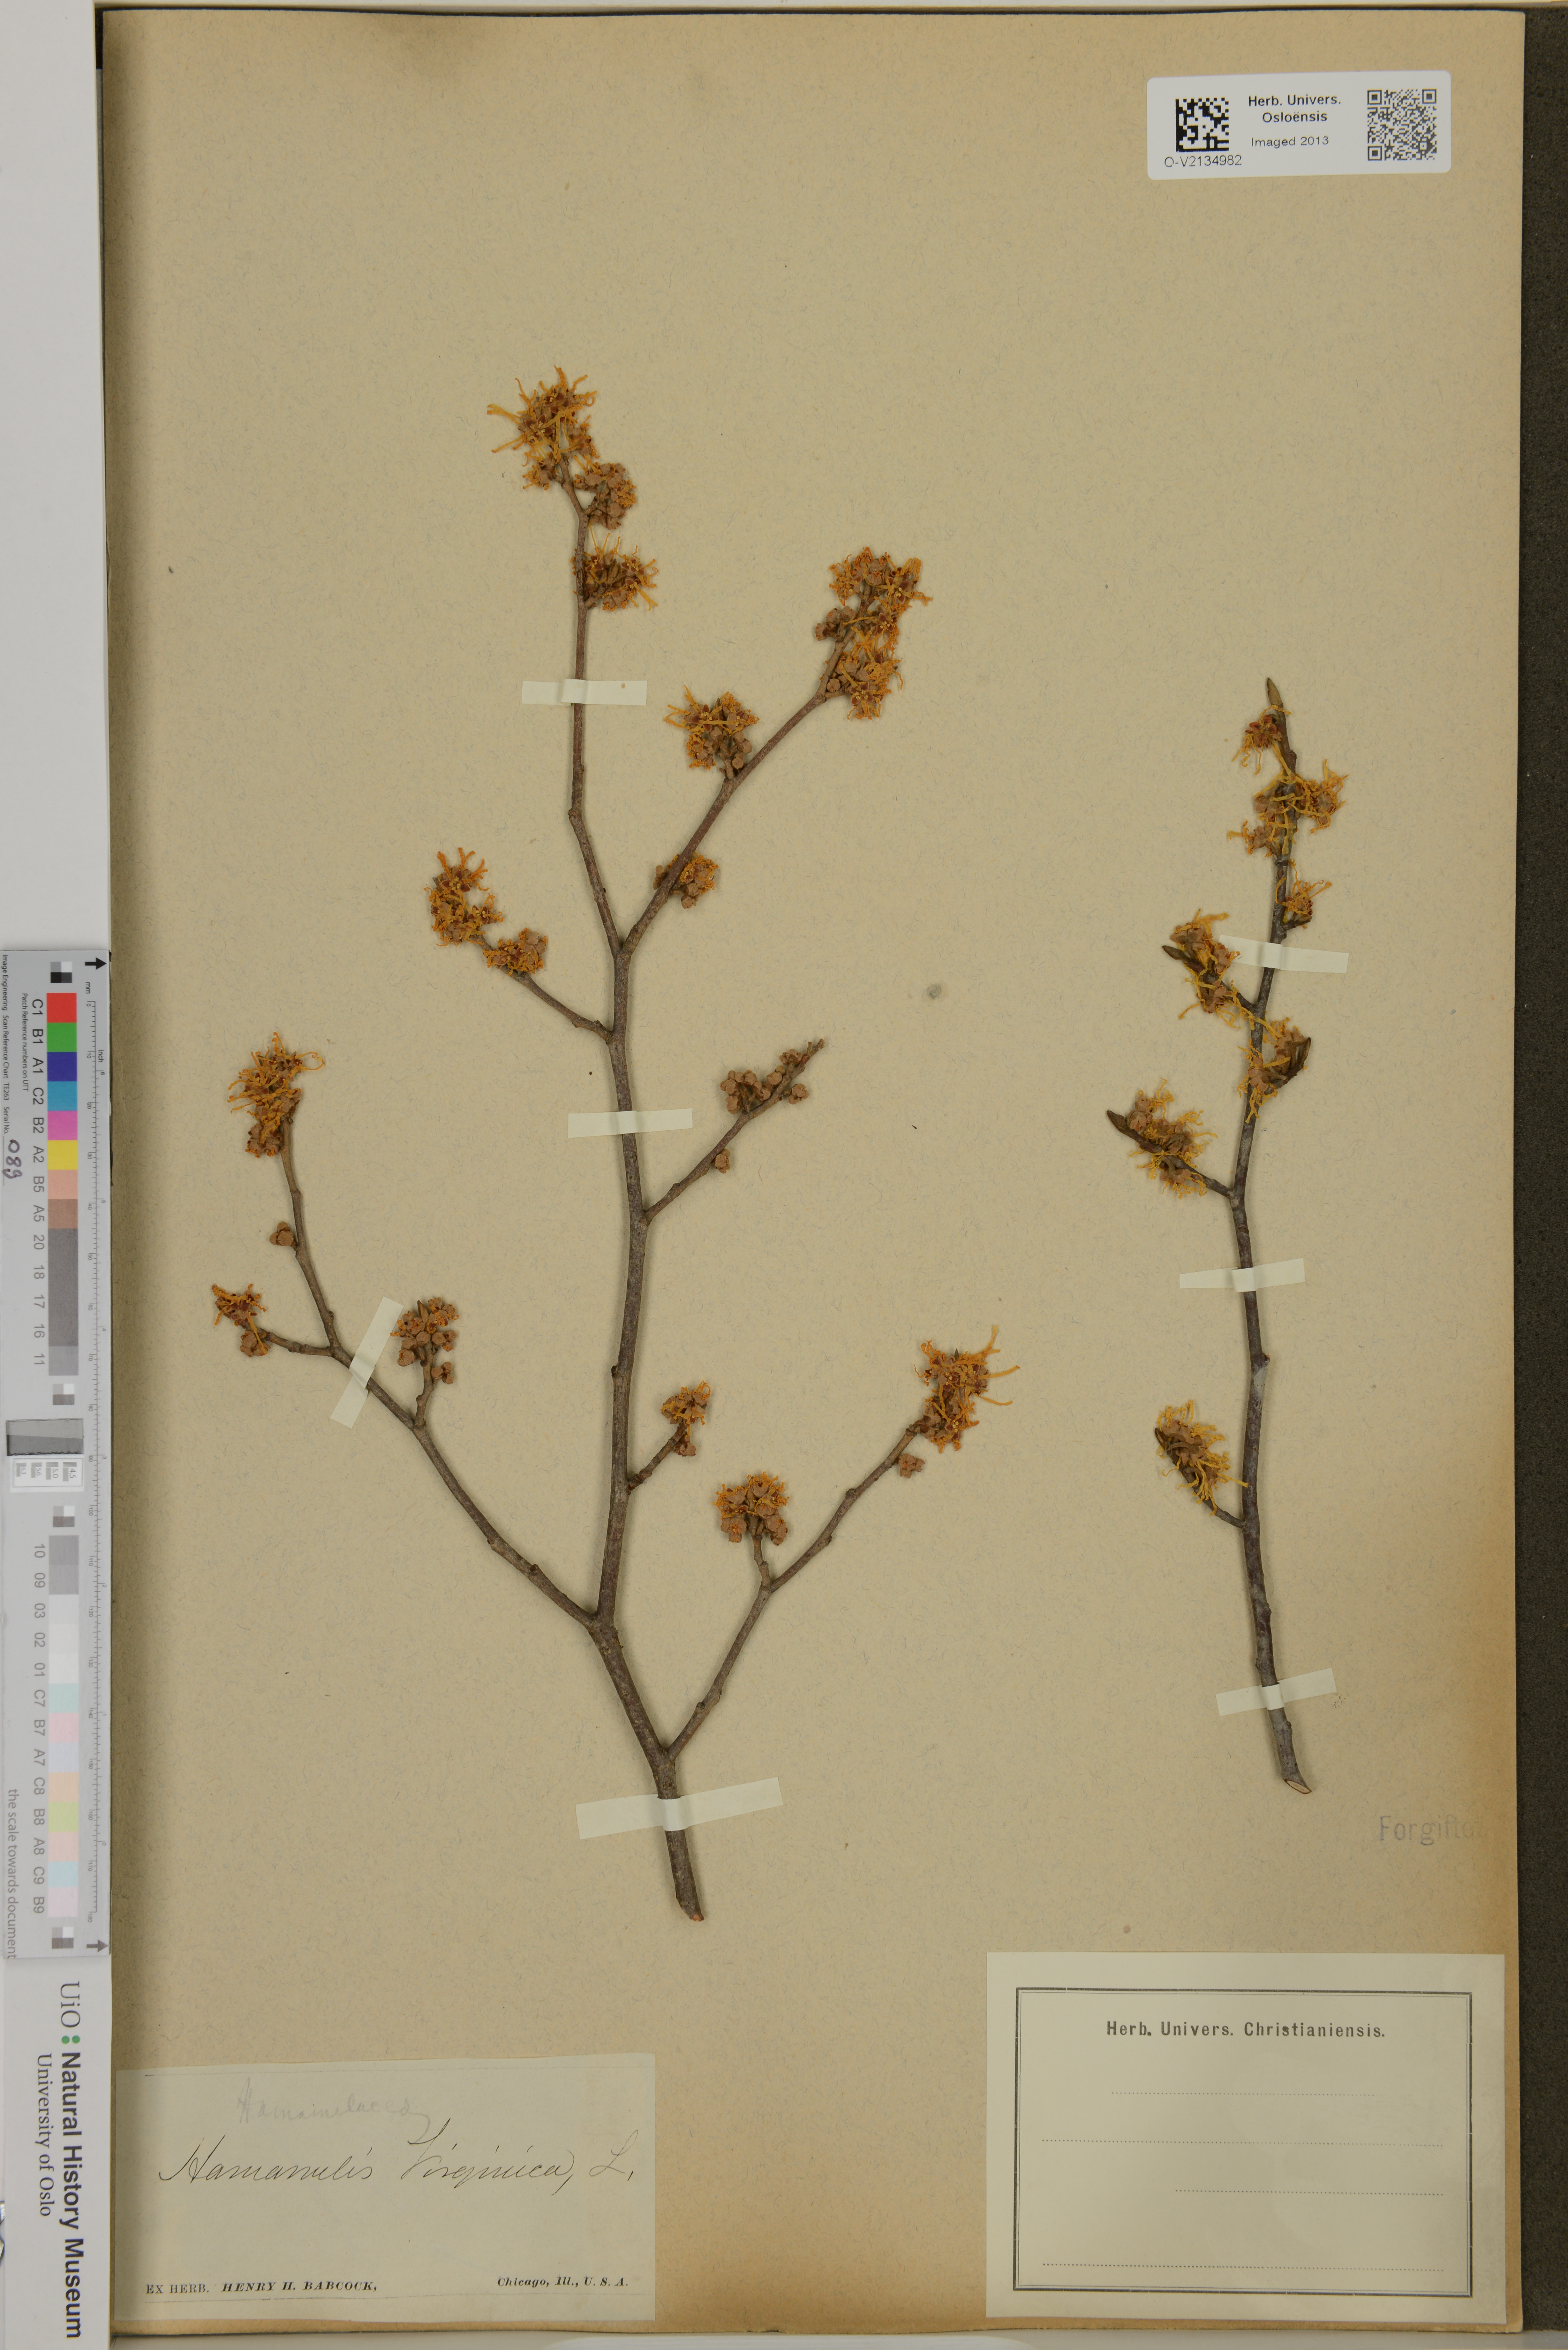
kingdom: Plantae
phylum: Tracheophyta
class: Magnoliopsida
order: Saxifragales
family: Hamamelidaceae
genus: Hamamelis
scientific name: Hamamelis virginiana
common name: Witch-hazel
